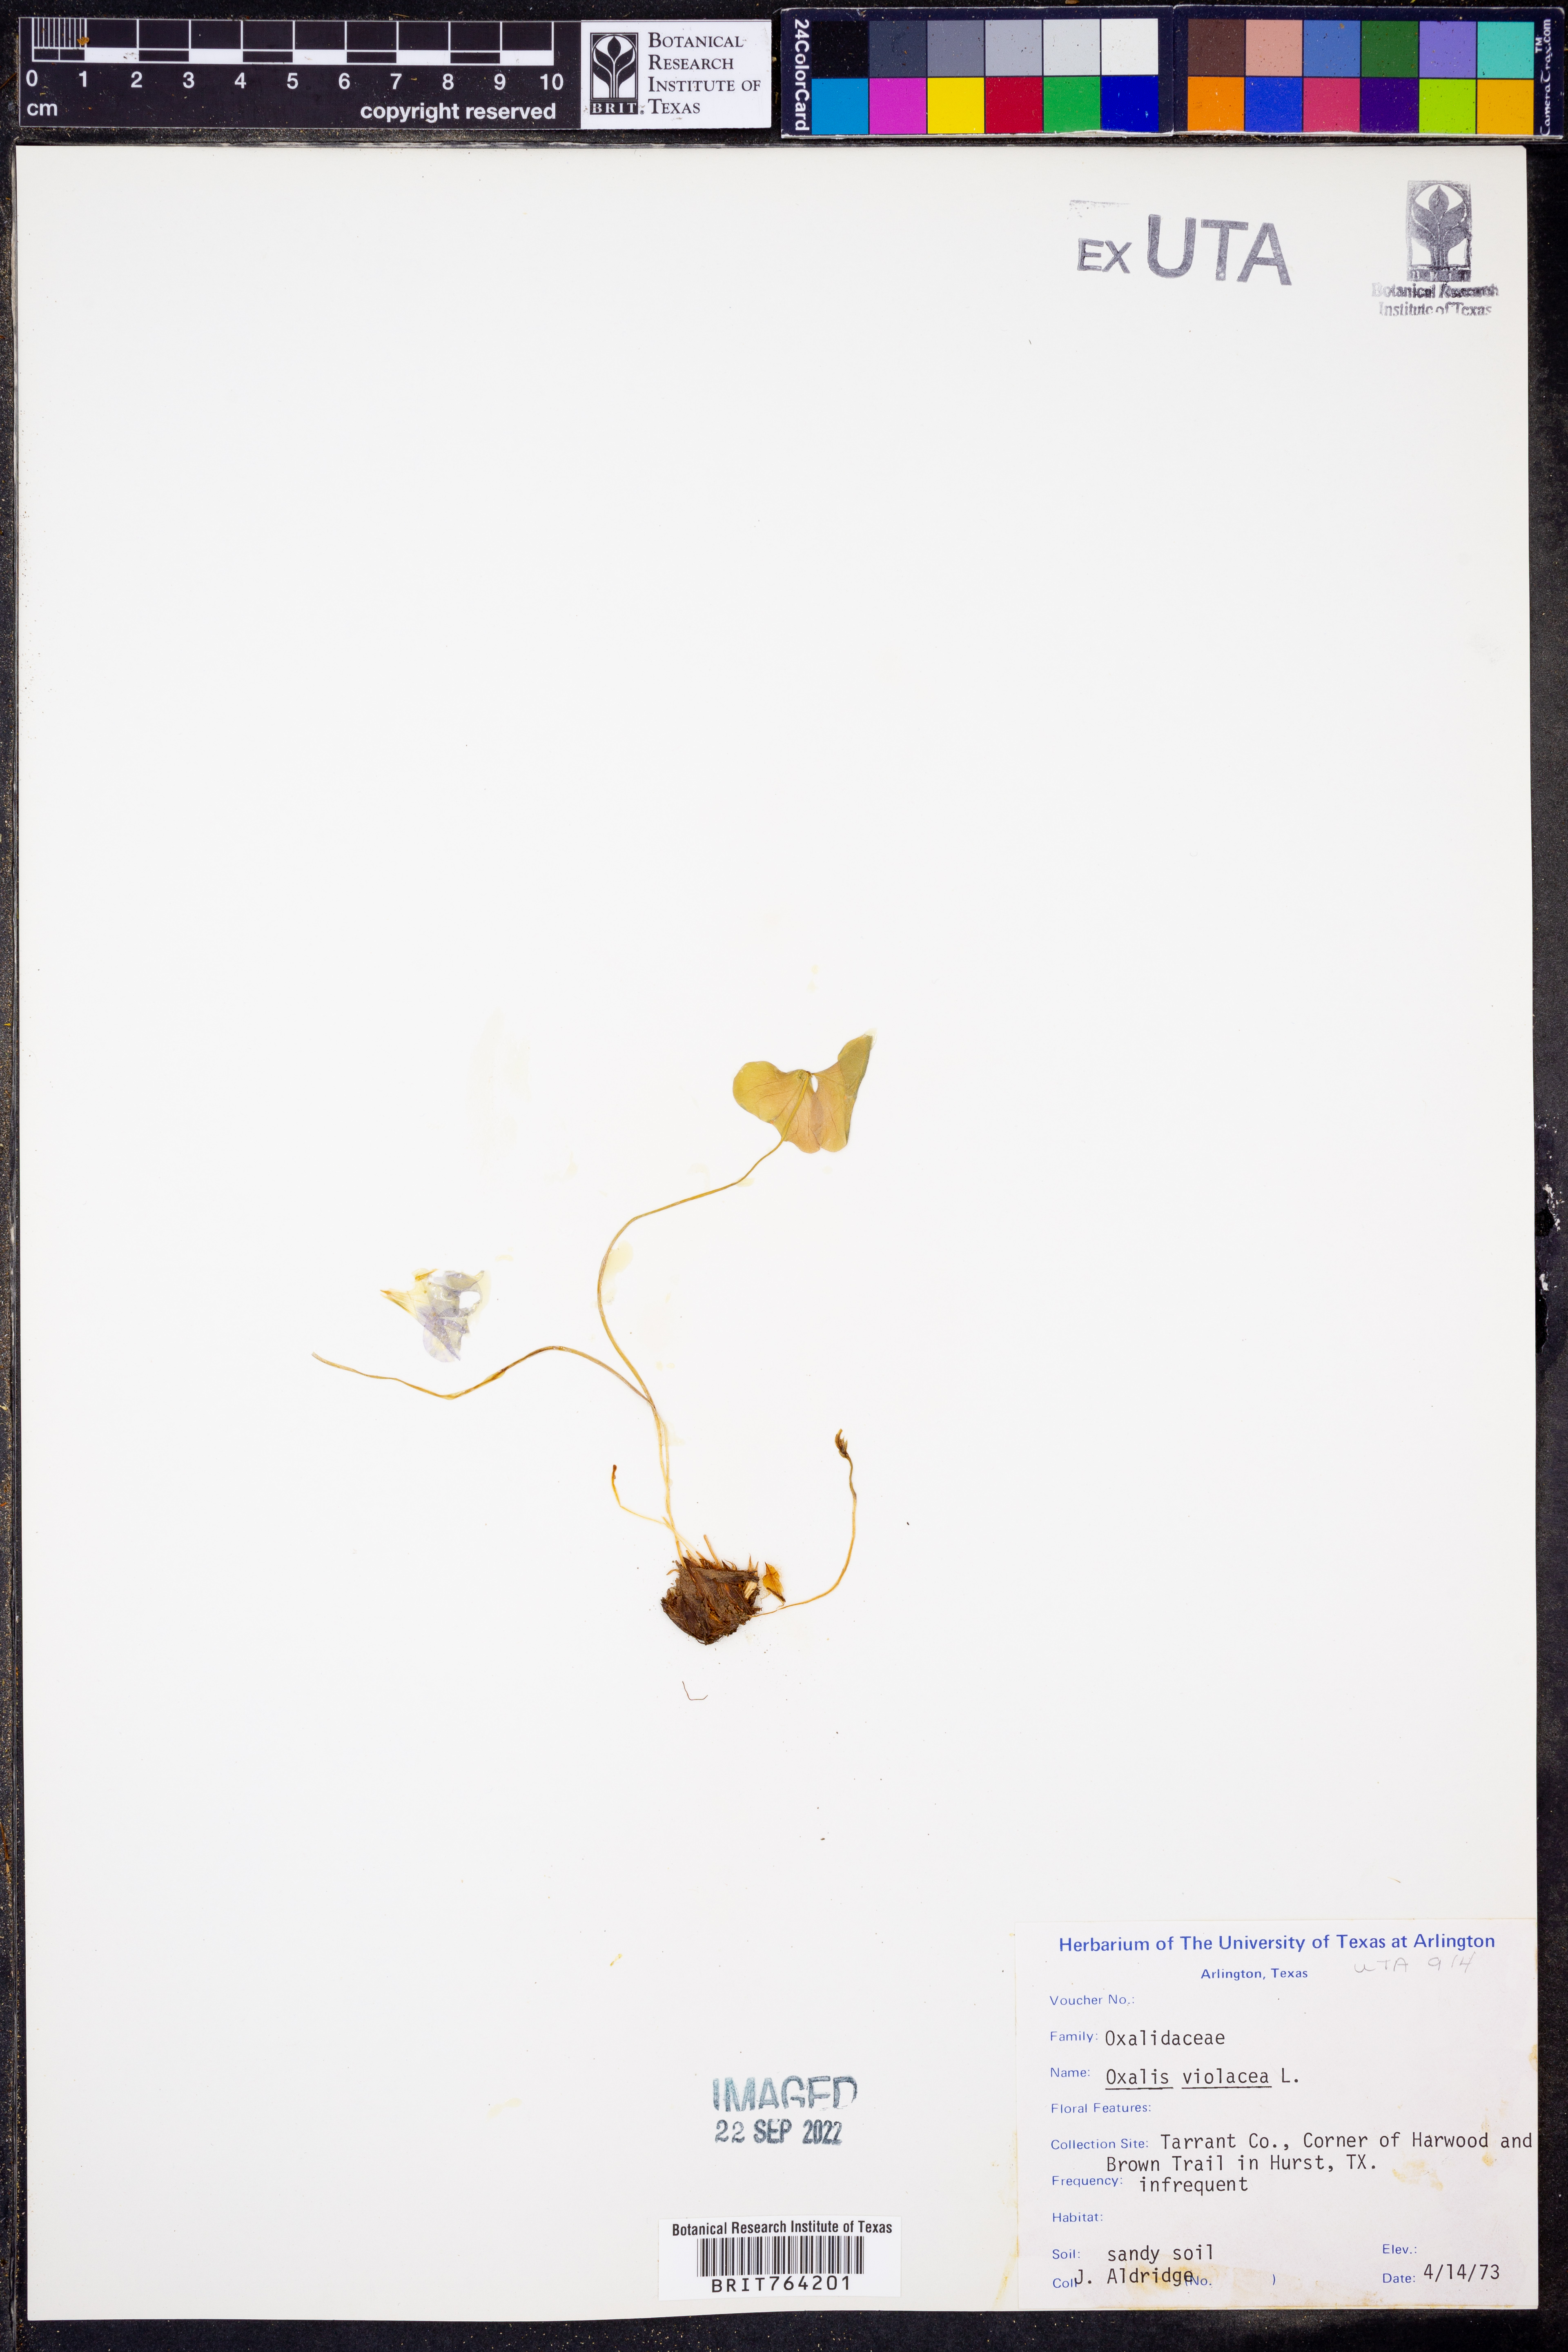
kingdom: Plantae
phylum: Tracheophyta
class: Magnoliopsida
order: Oxalidales
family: Oxalidaceae
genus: Oxalis
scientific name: Oxalis violacea
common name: Violet wood-sorrel
